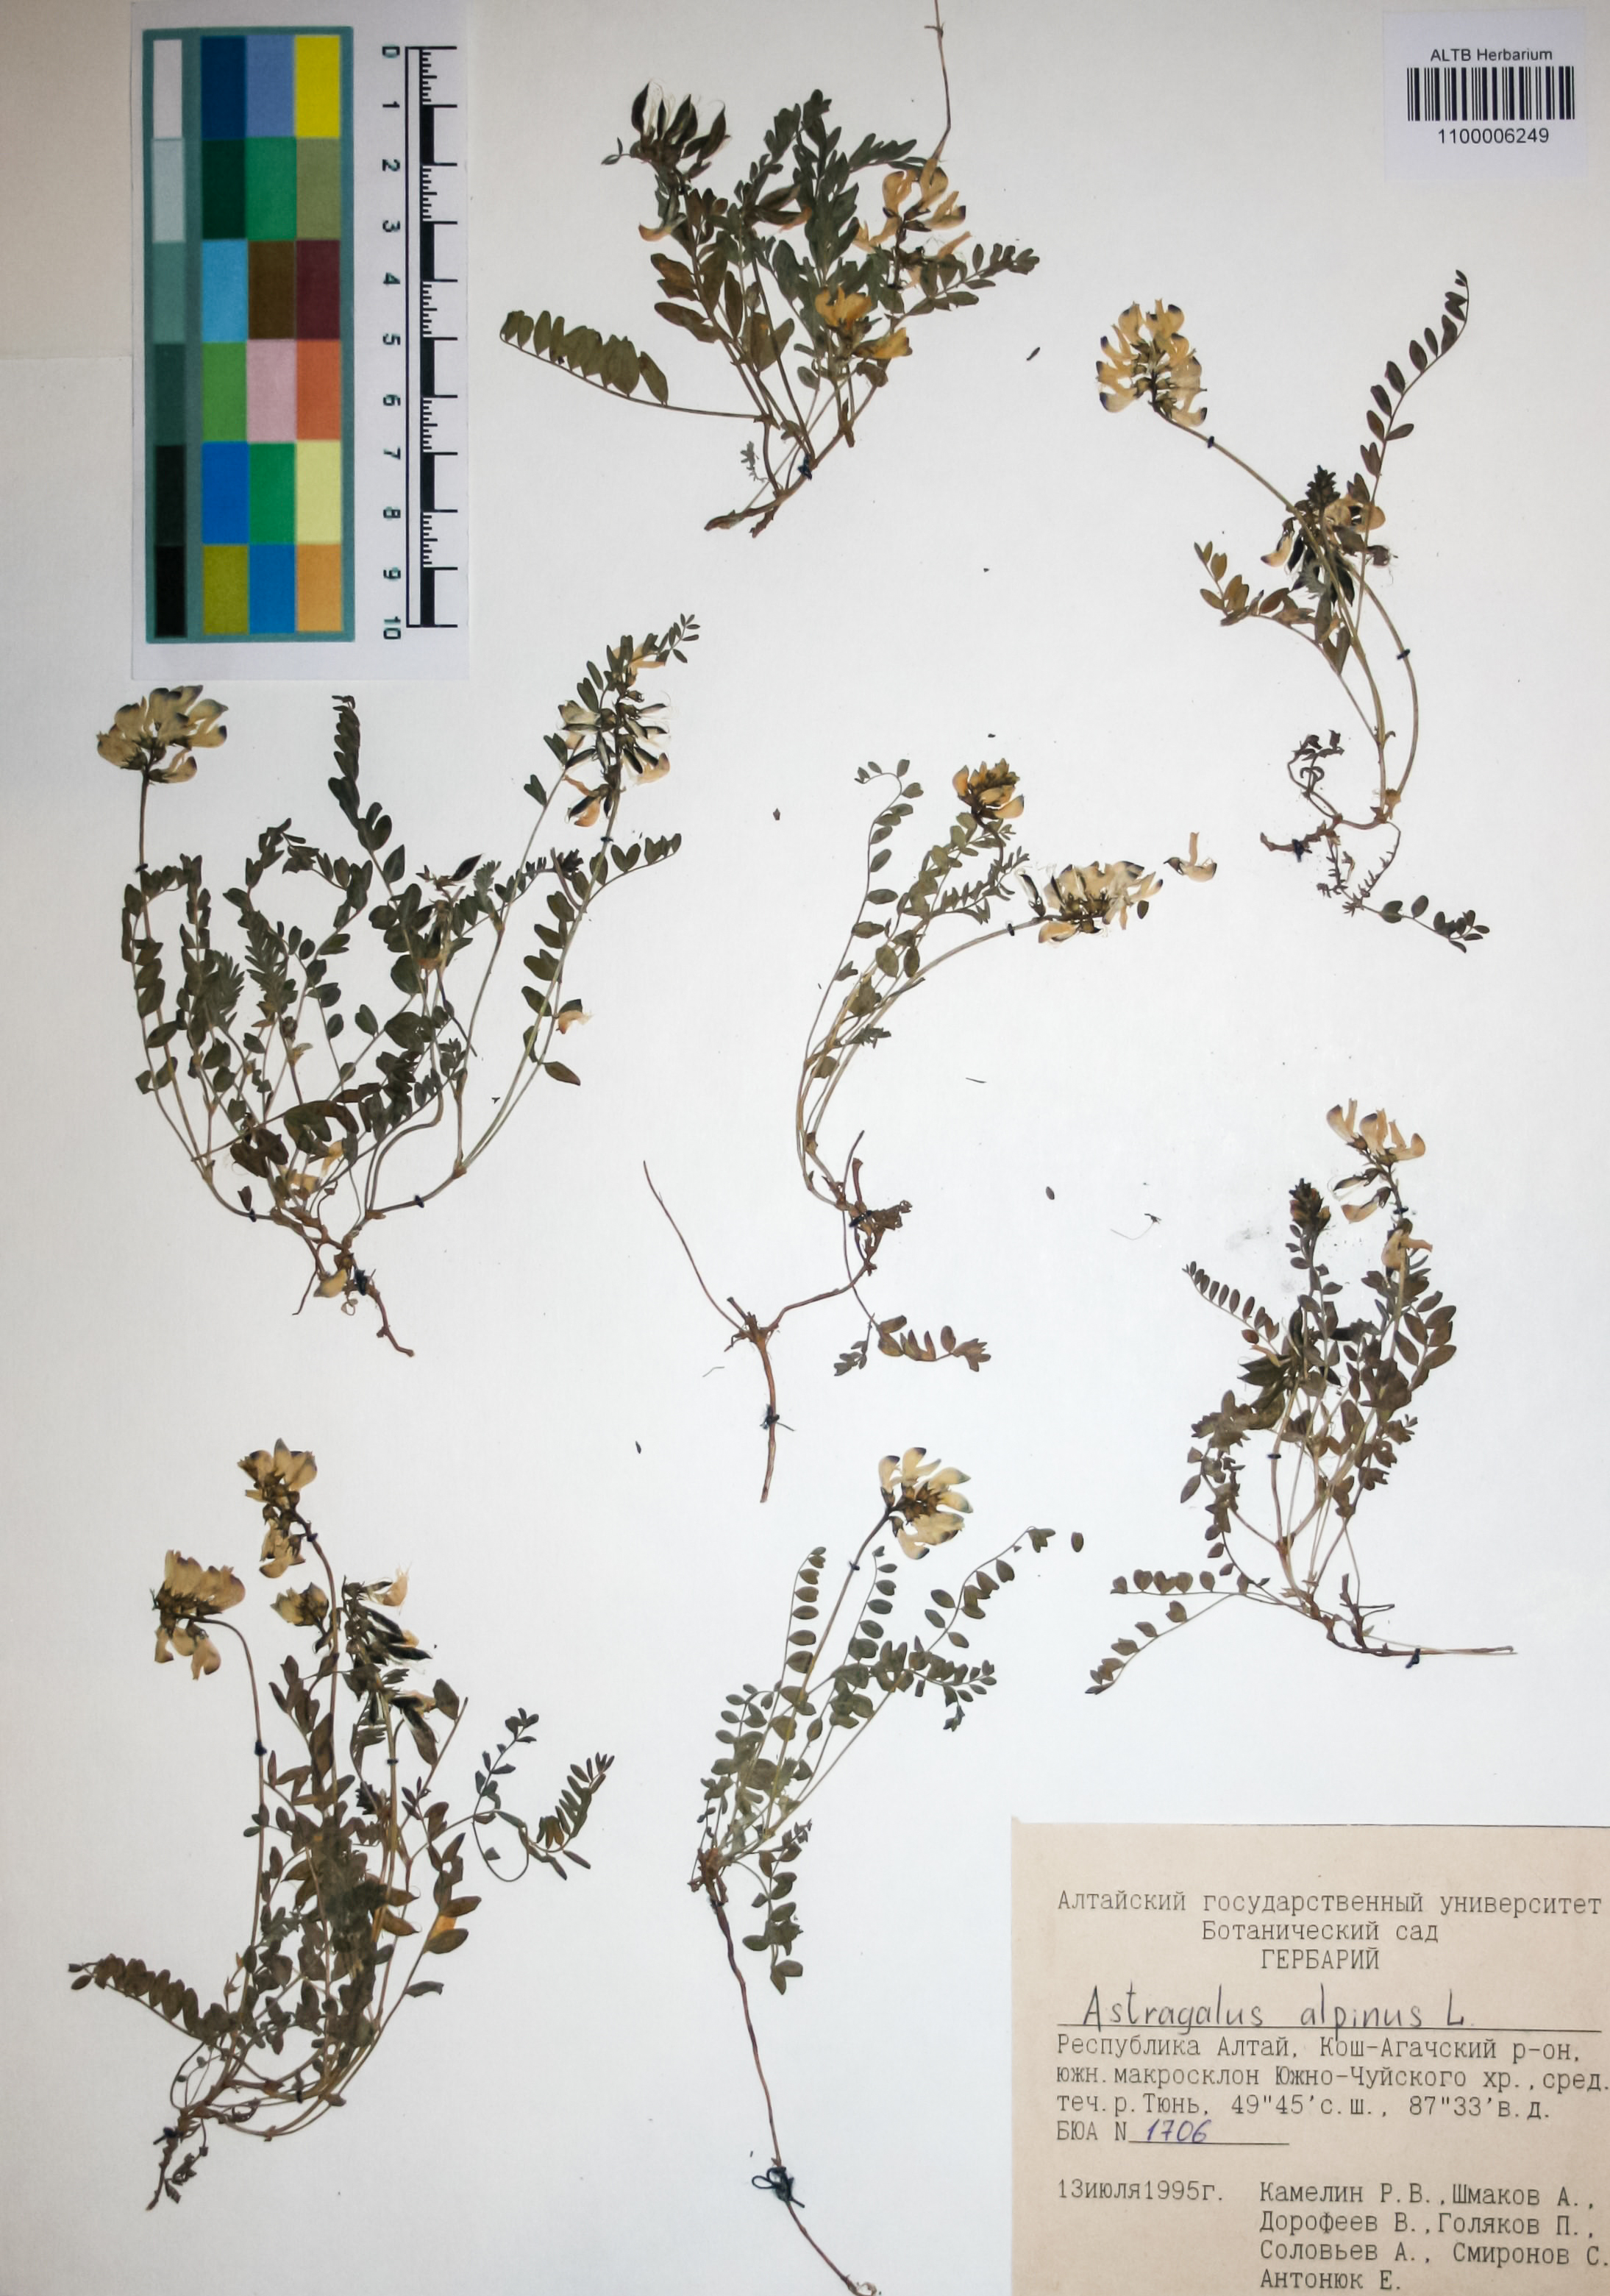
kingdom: Plantae
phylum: Tracheophyta
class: Magnoliopsida
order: Fabales
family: Fabaceae
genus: Astragalus
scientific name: Astragalus alpinus
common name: Alpine milk-vetch
